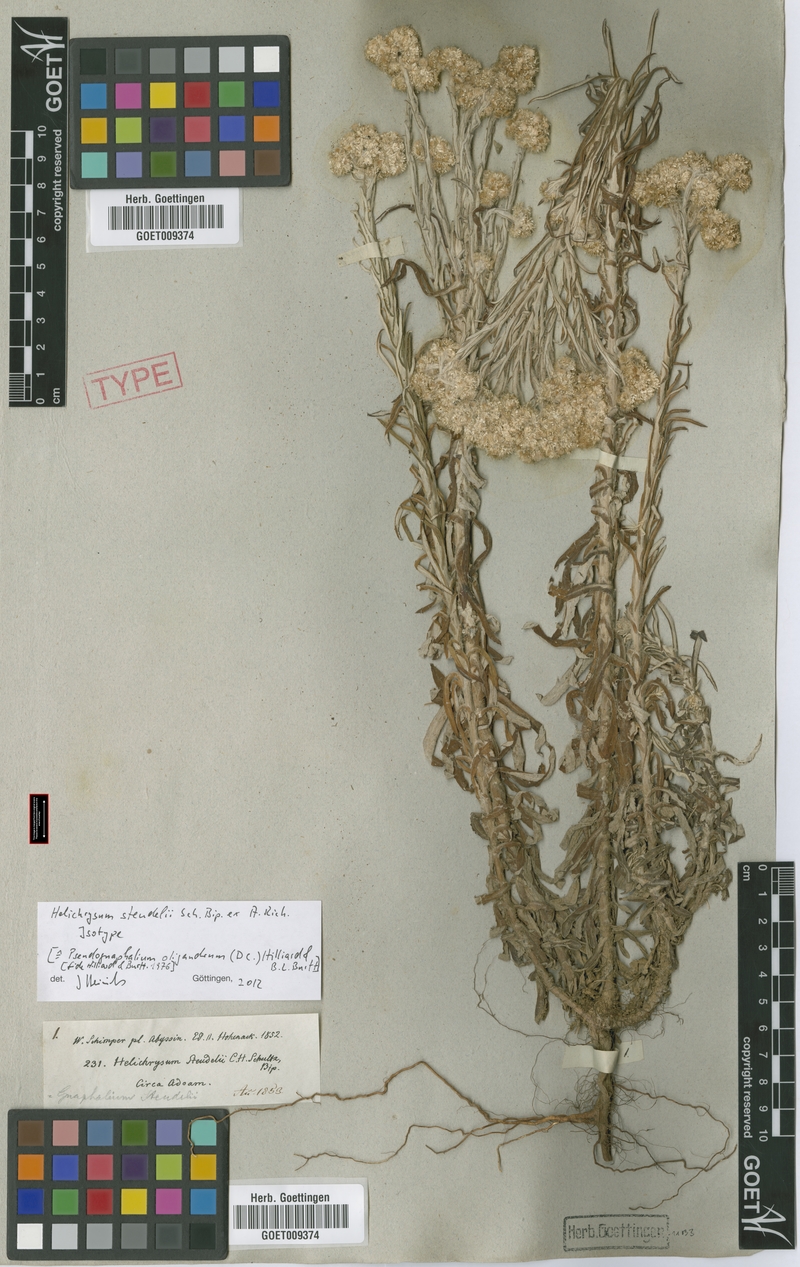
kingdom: Plantae
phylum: Tracheophyta
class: Magnoliopsida
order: Asterales
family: Asteraceae
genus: Pseudognaphalium
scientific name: Pseudognaphalium oligandrum
